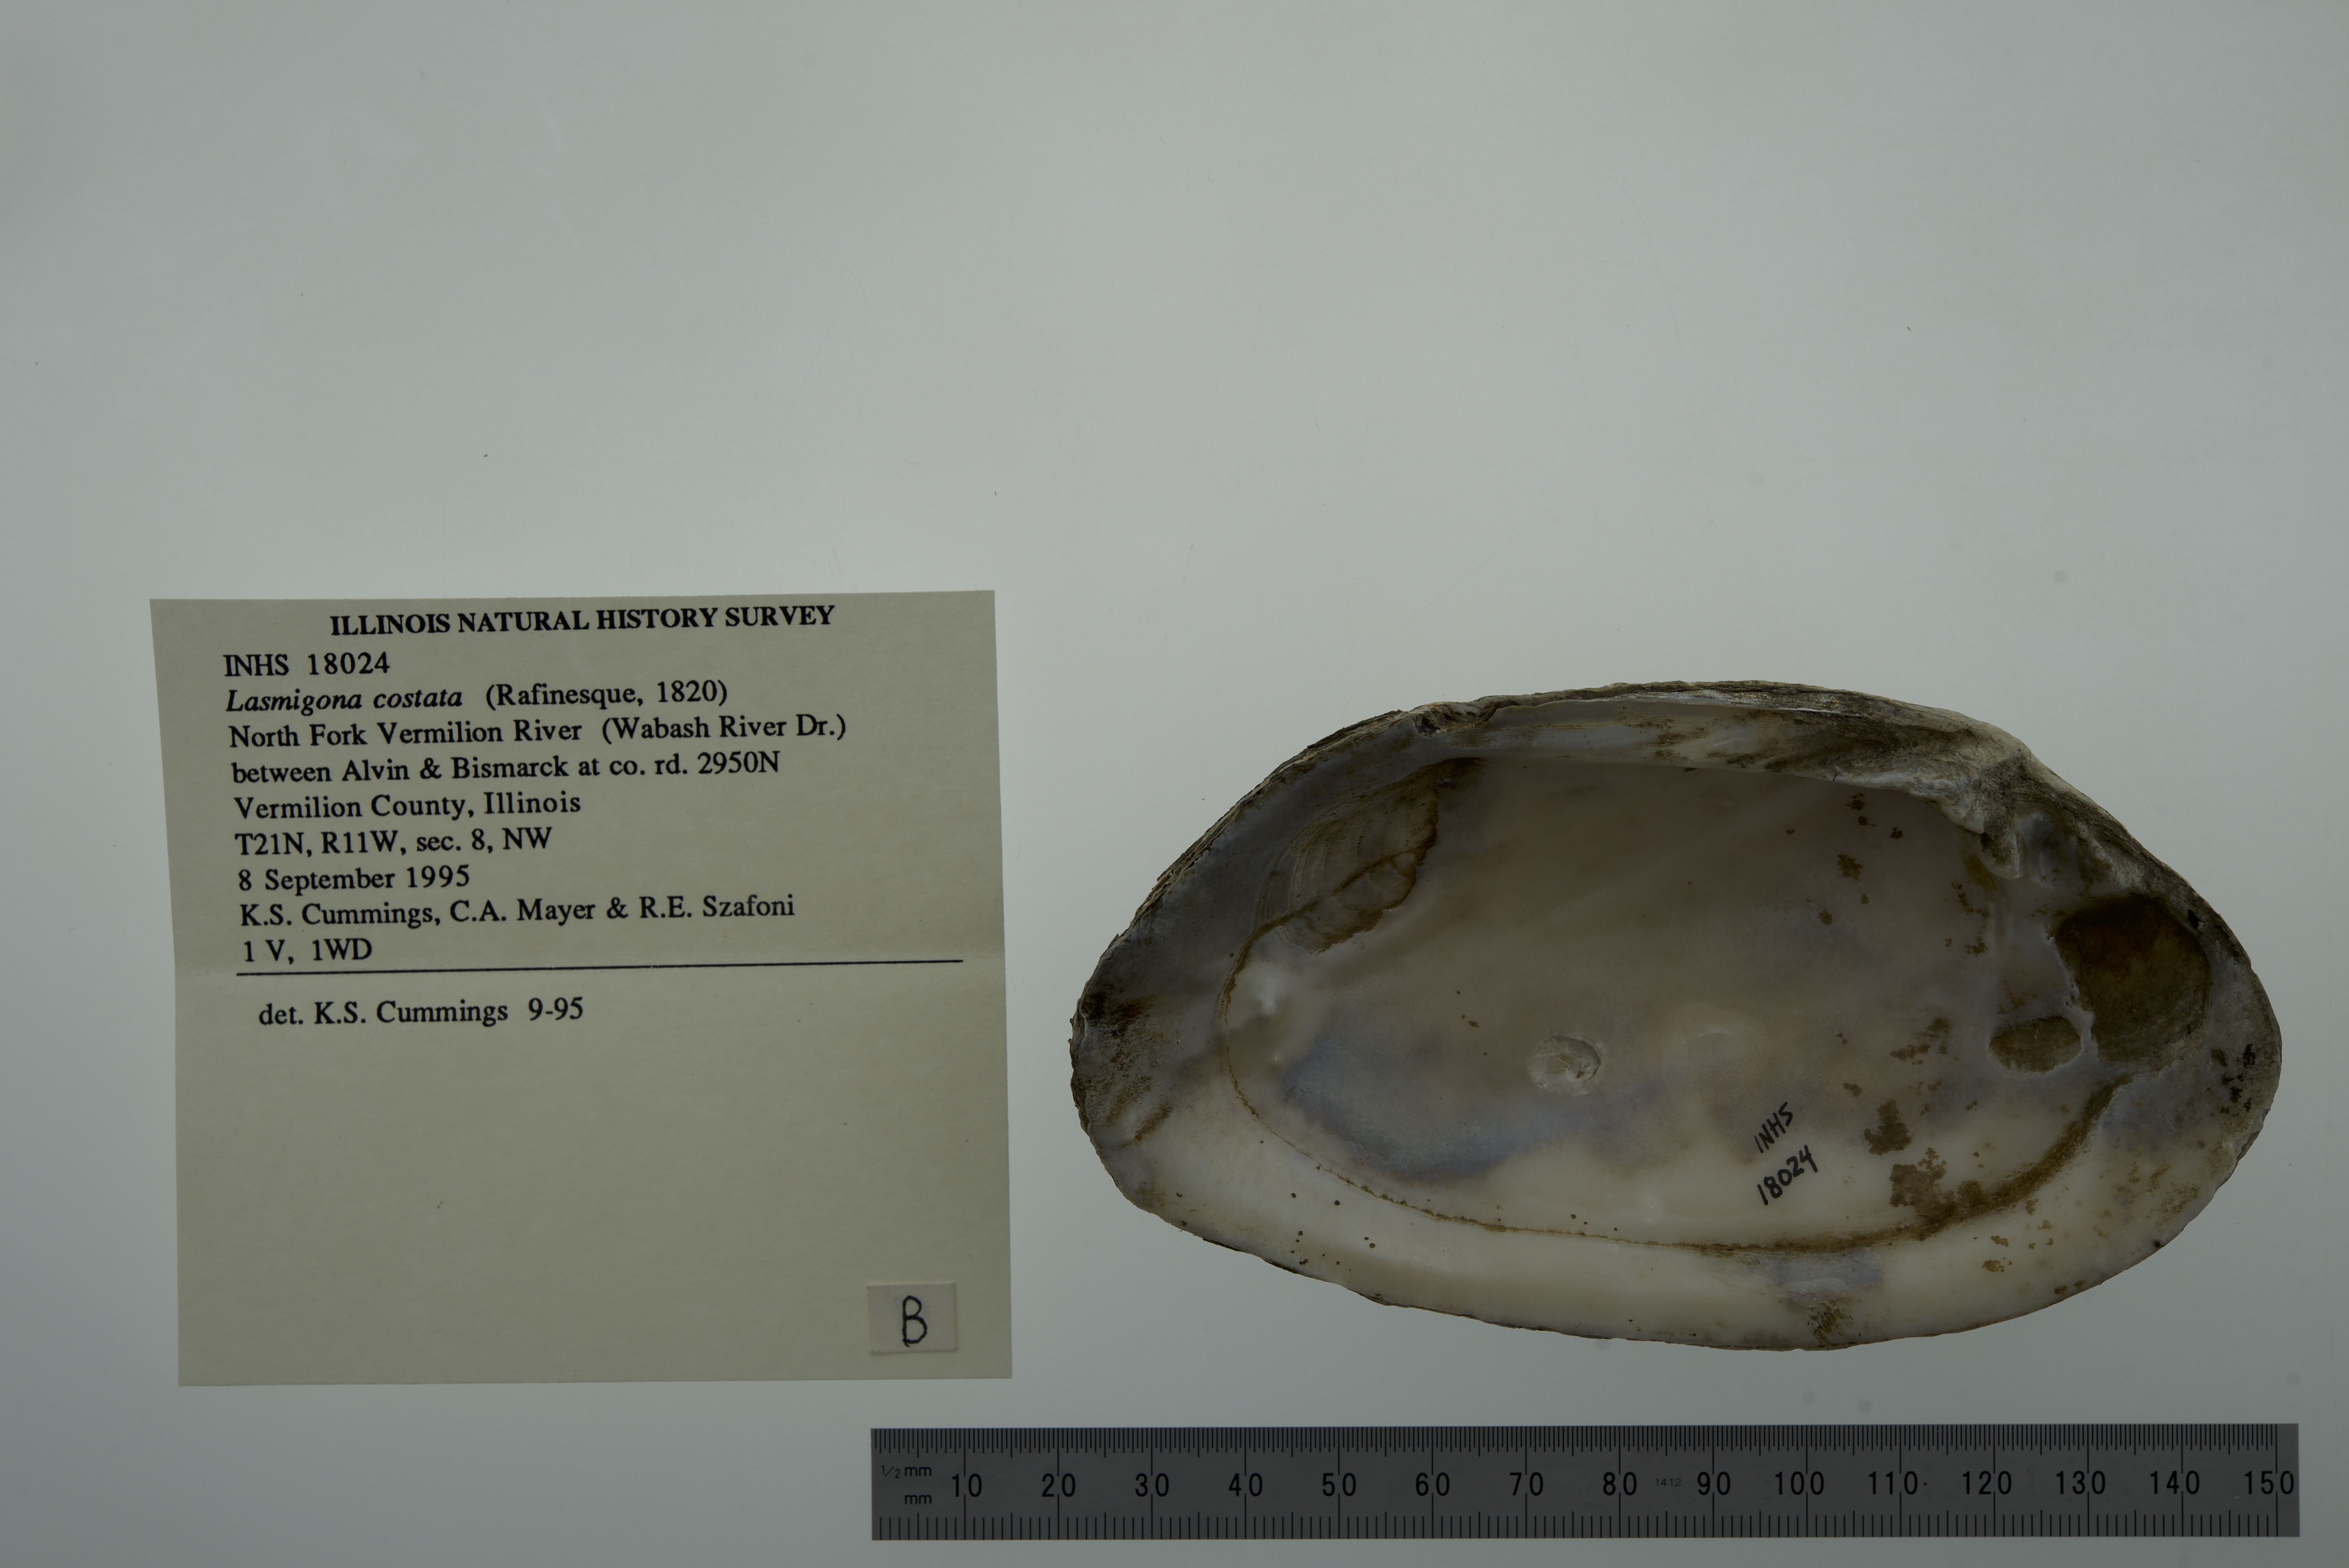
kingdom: Animalia
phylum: Mollusca
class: Bivalvia
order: Unionida
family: Unionidae
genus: Lasmigona
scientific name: Lasmigona costata
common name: Flutedshell
